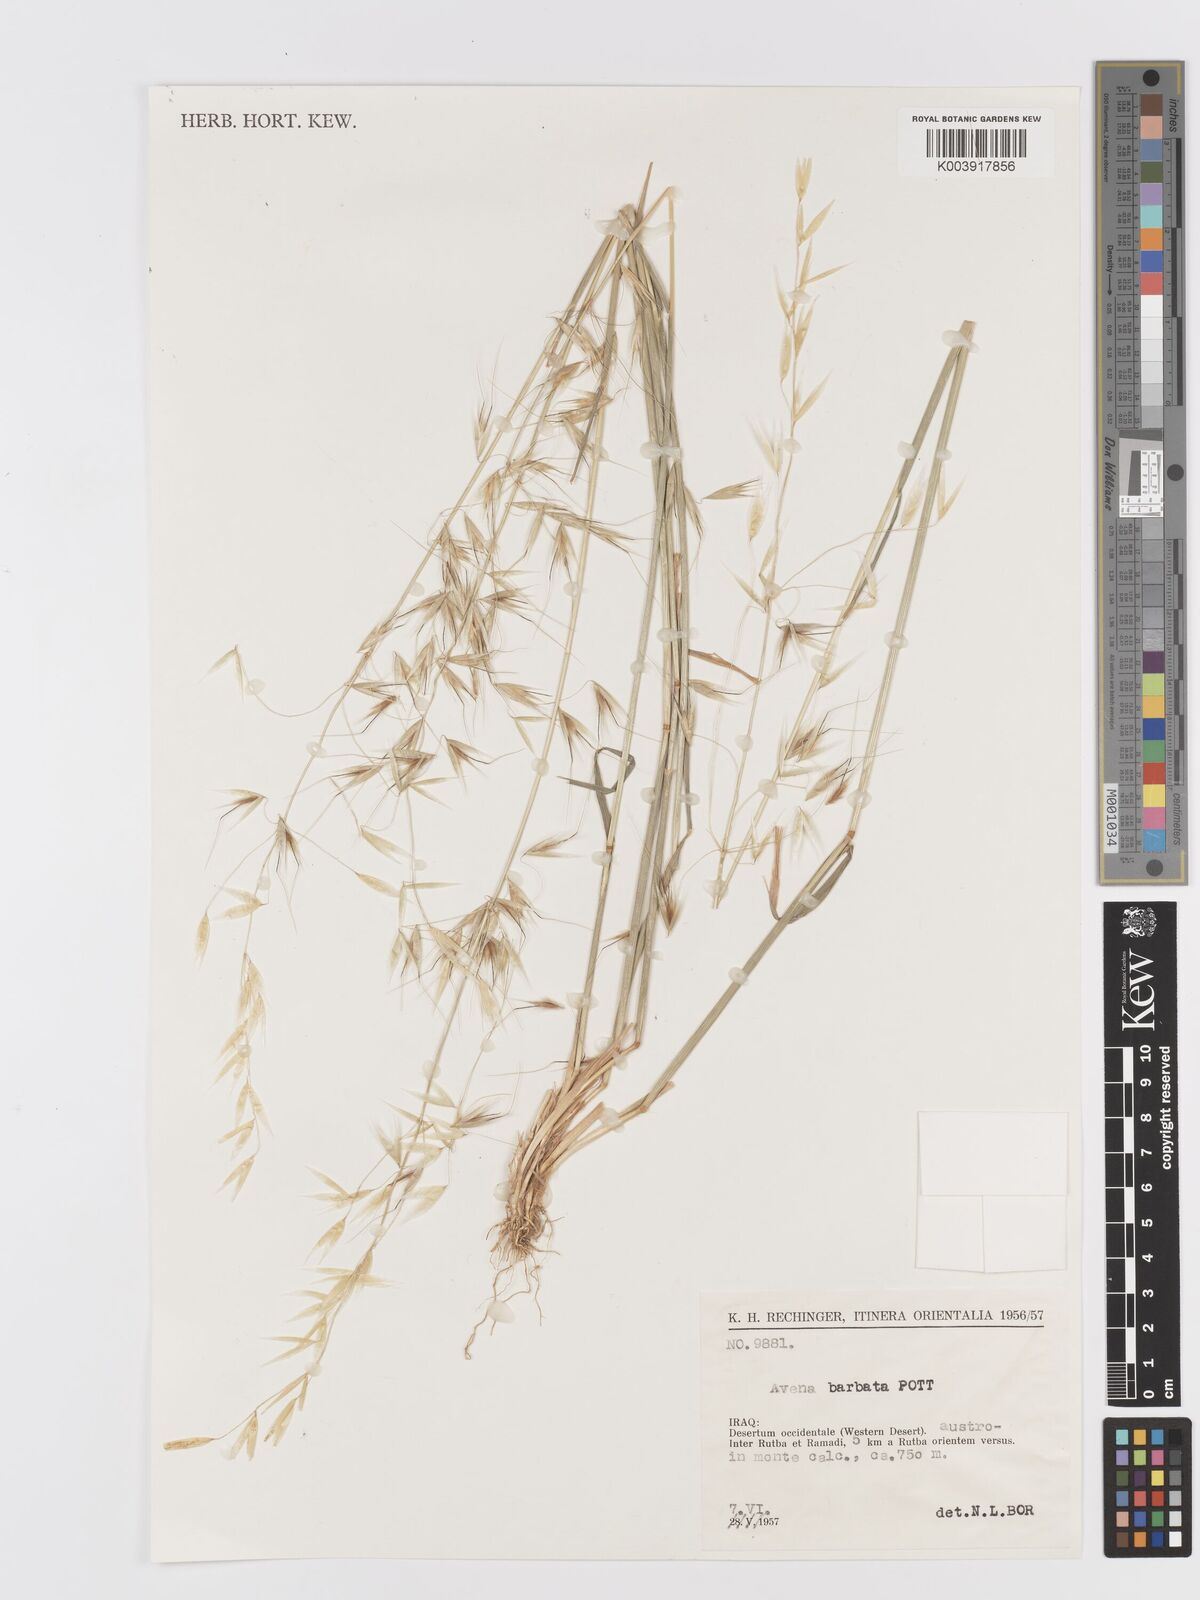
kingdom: Plantae
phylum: Tracheophyta
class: Liliopsida
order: Poales
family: Poaceae
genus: Avena
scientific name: Avena
